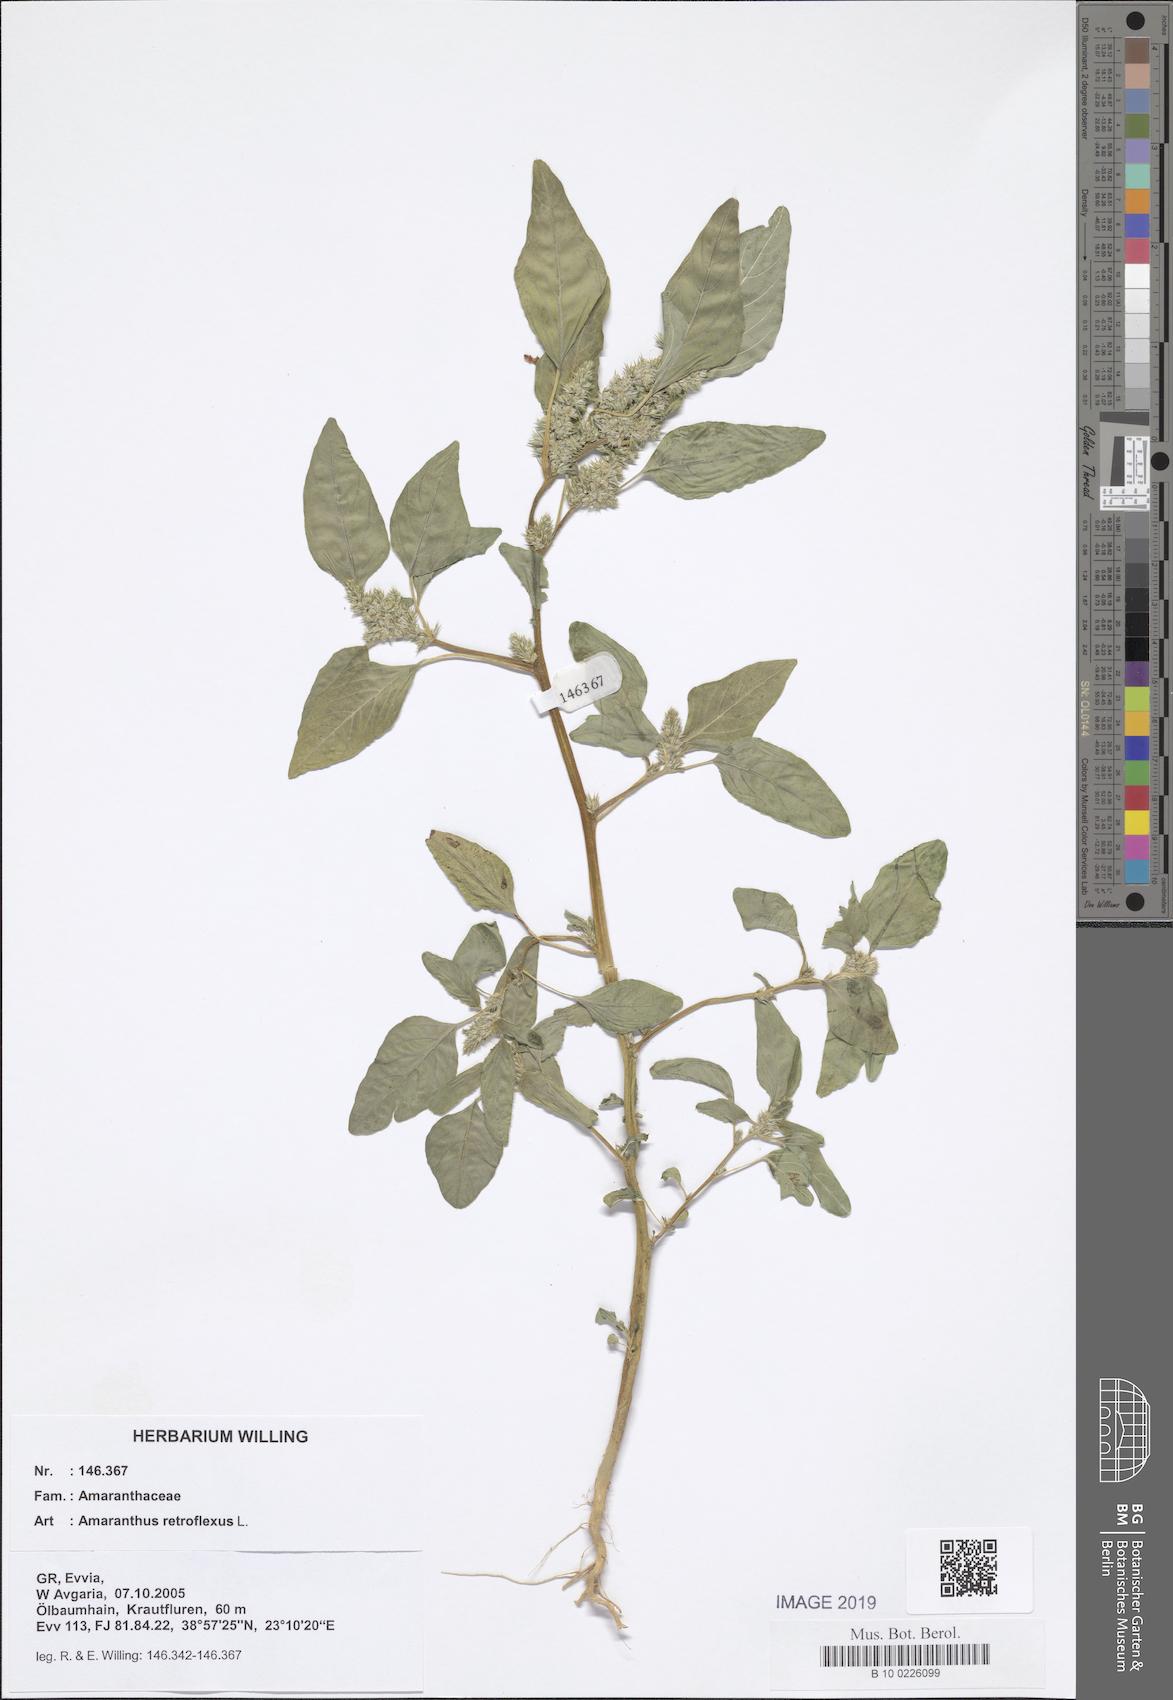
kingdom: Plantae
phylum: Tracheophyta
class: Magnoliopsida
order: Caryophyllales
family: Amaranthaceae
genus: Amaranthus
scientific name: Amaranthus retroflexus
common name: Redroot amaranth
